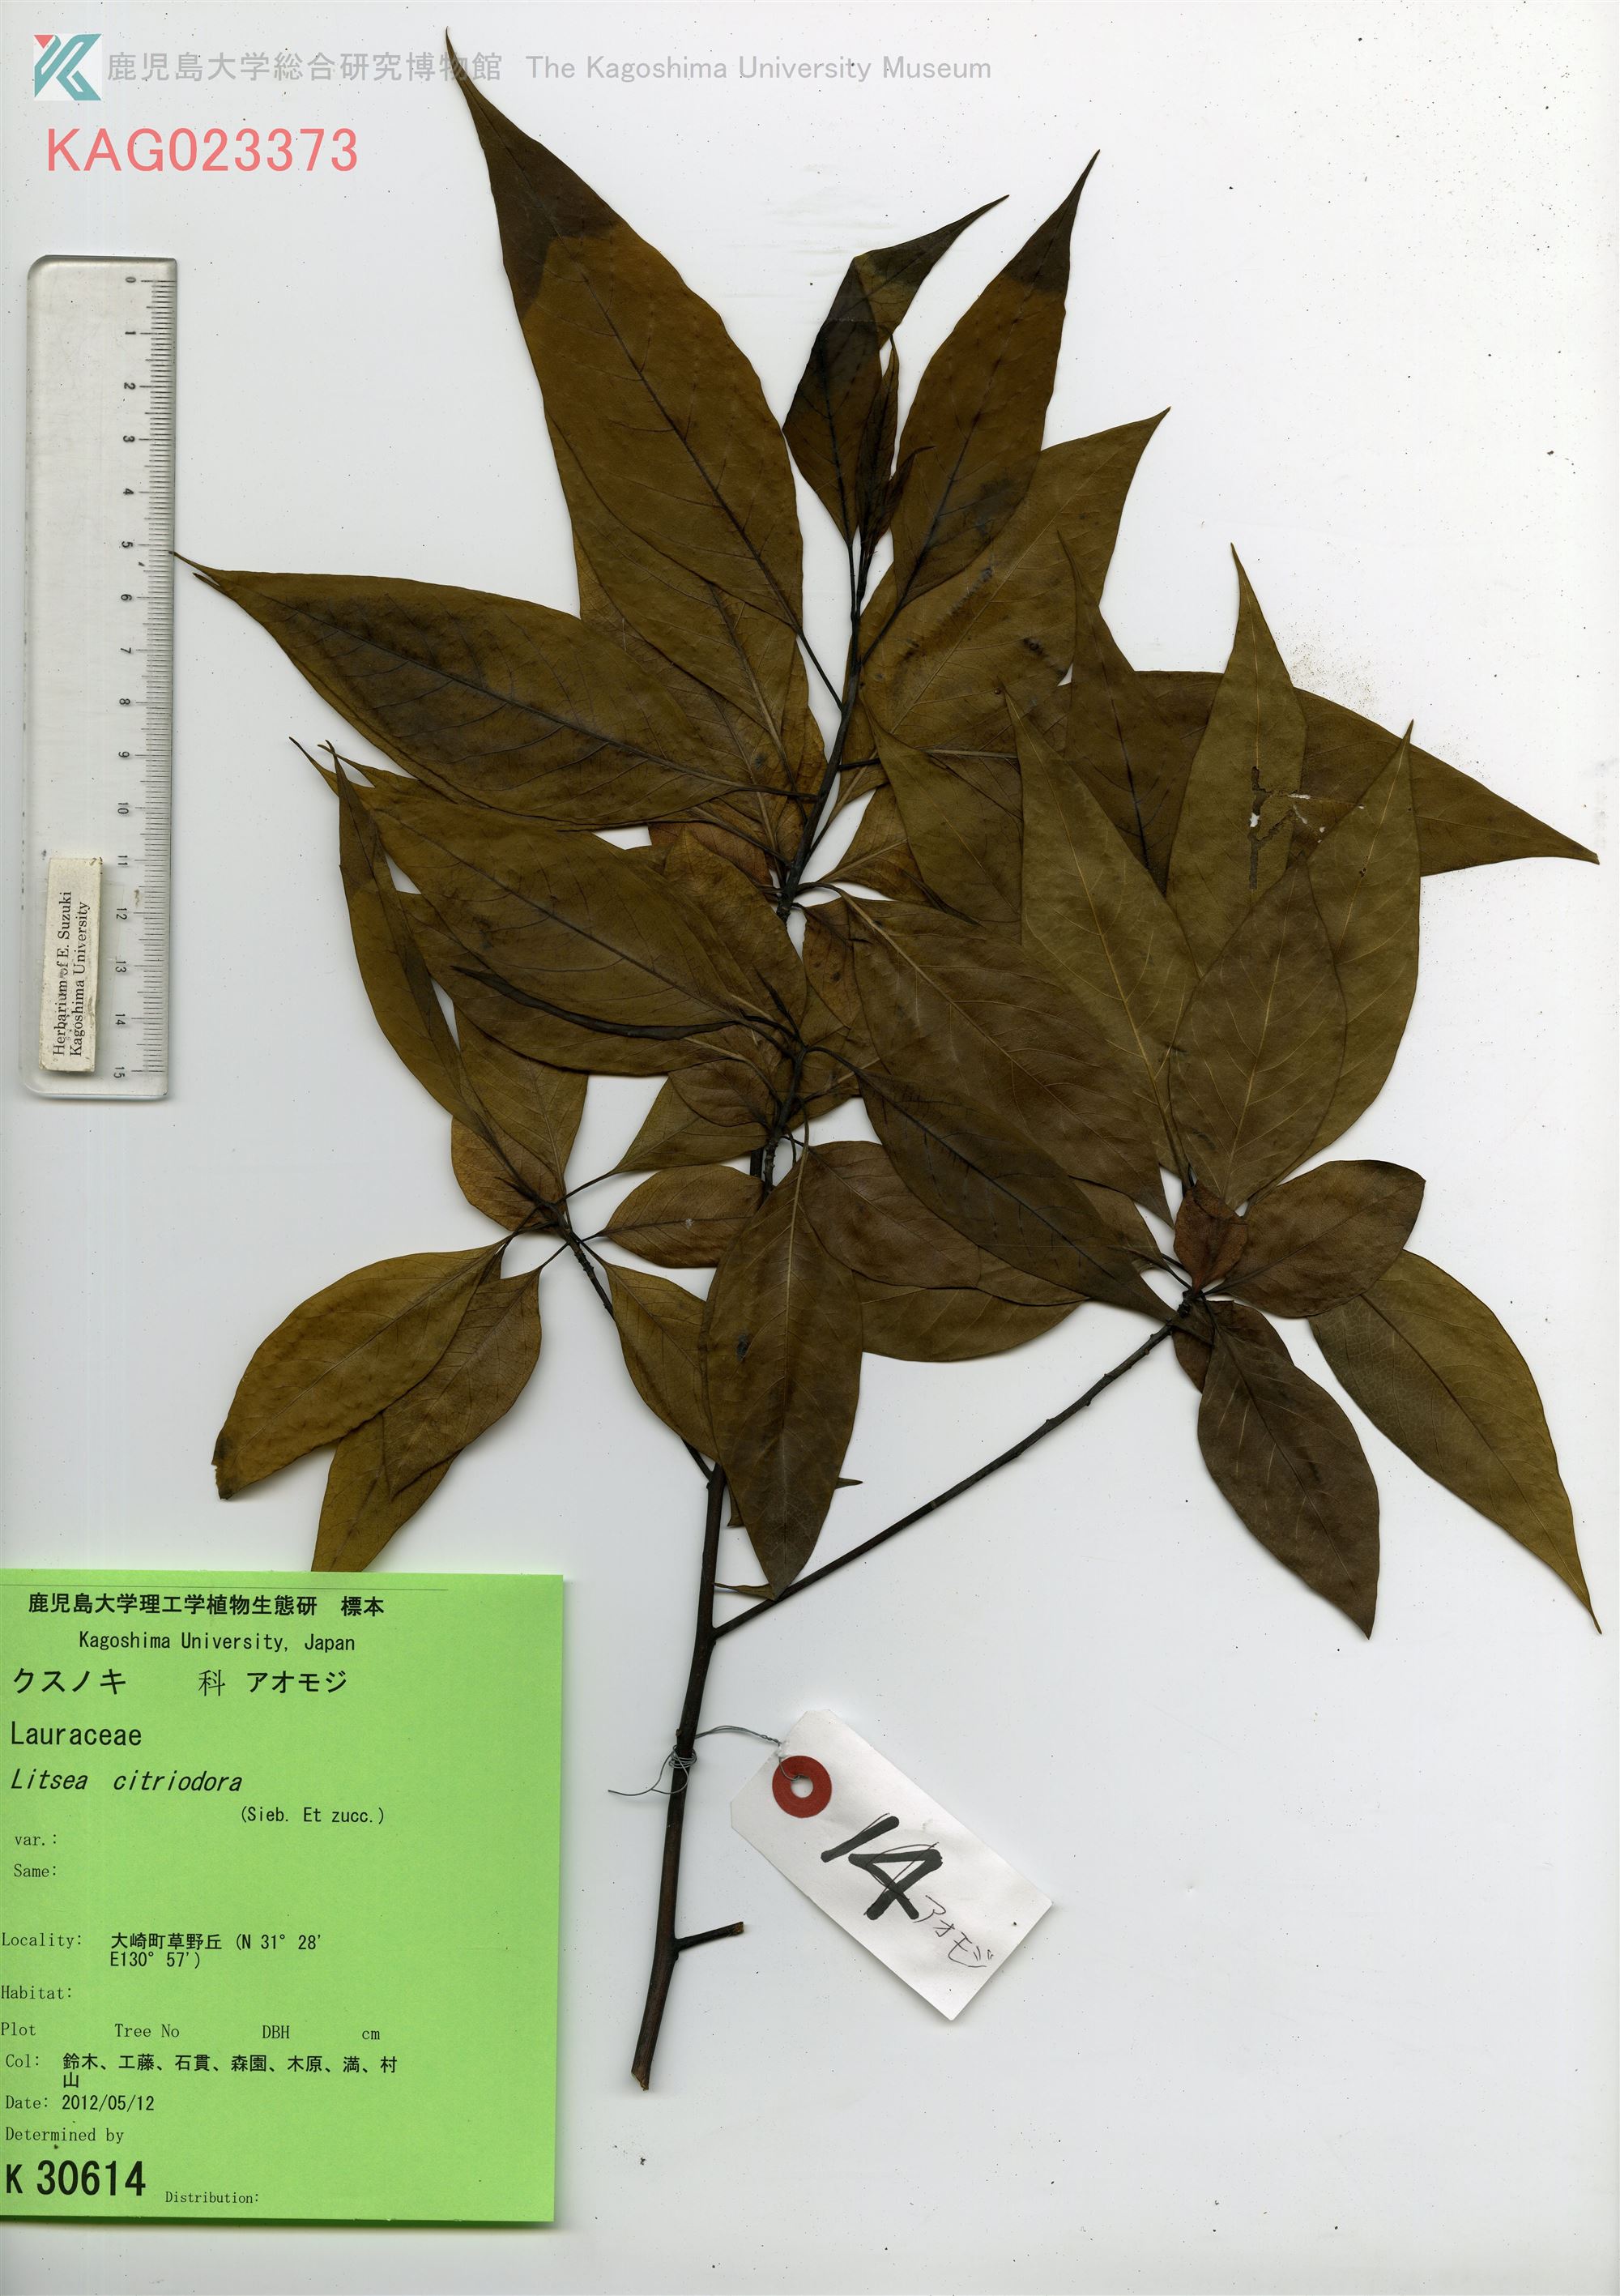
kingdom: Plantae
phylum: Tracheophyta
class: Magnoliopsida
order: Laurales
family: Lauraceae
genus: Litsea
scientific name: Litsea cubeba
